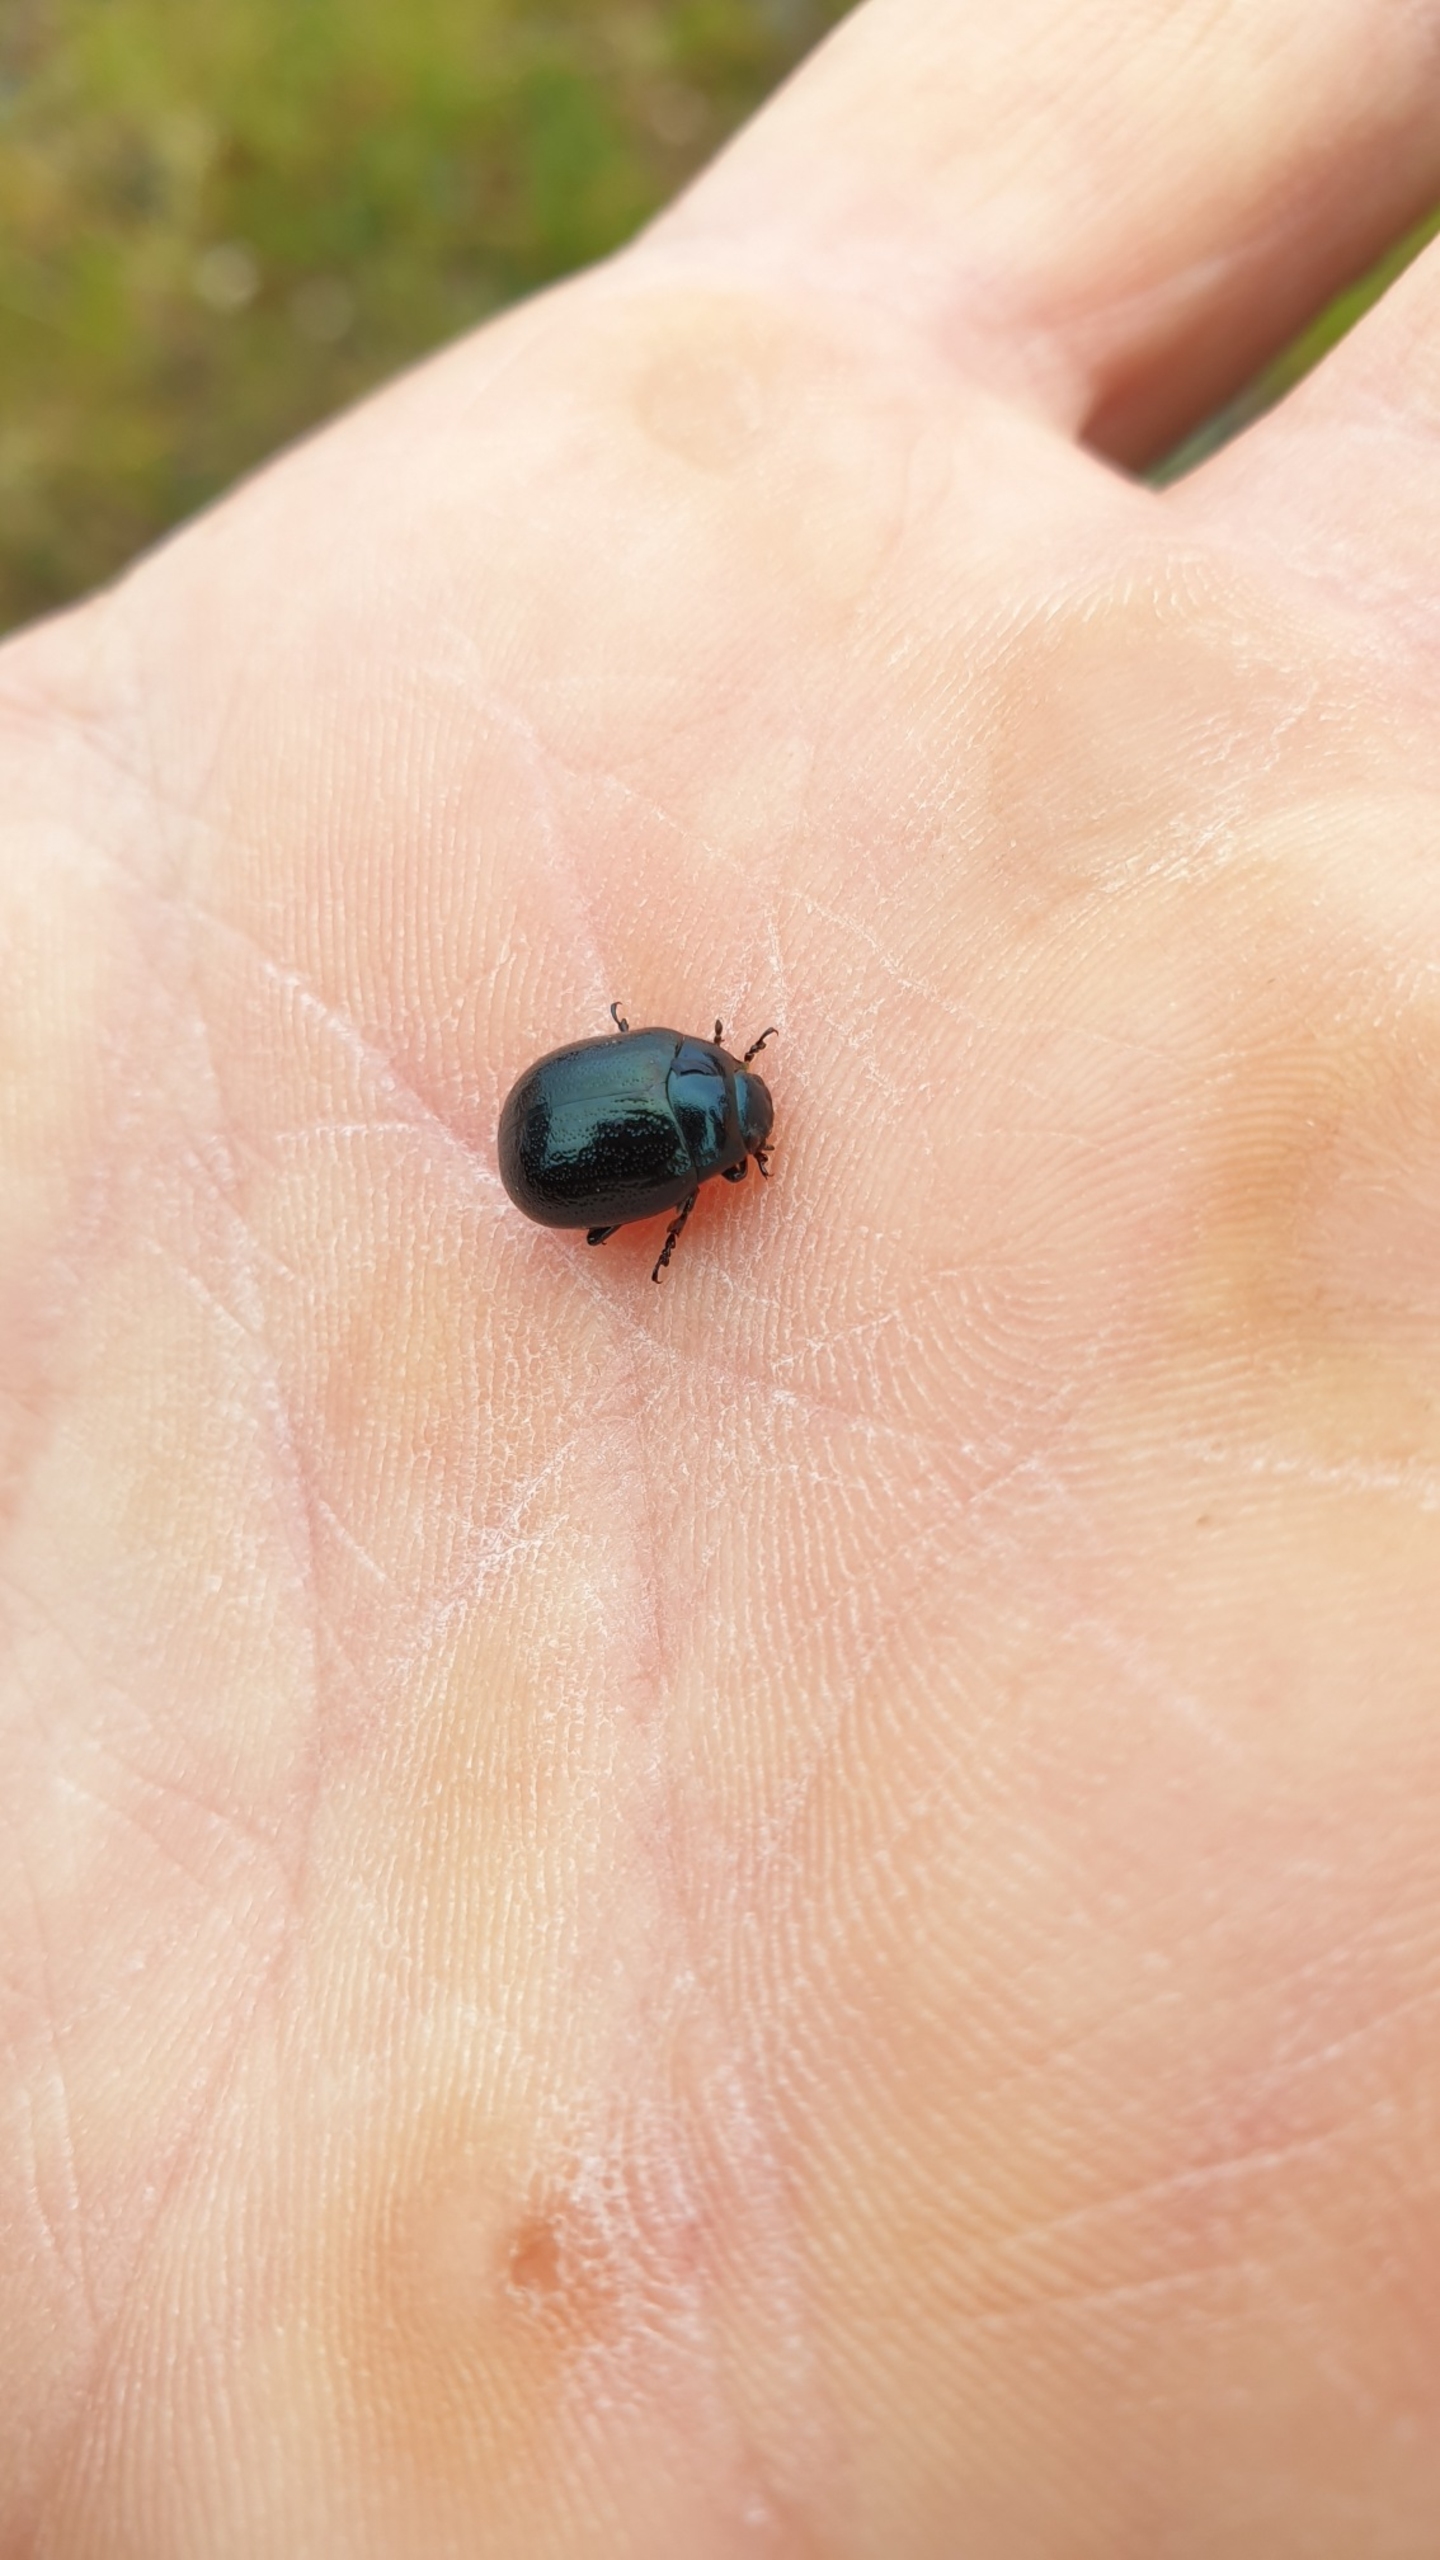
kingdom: Animalia
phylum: Arthropoda
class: Insecta
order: Coleoptera
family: Chrysomelidae
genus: Chrysolina
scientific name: Chrysolina haemoptera
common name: Sortblå guldbille
